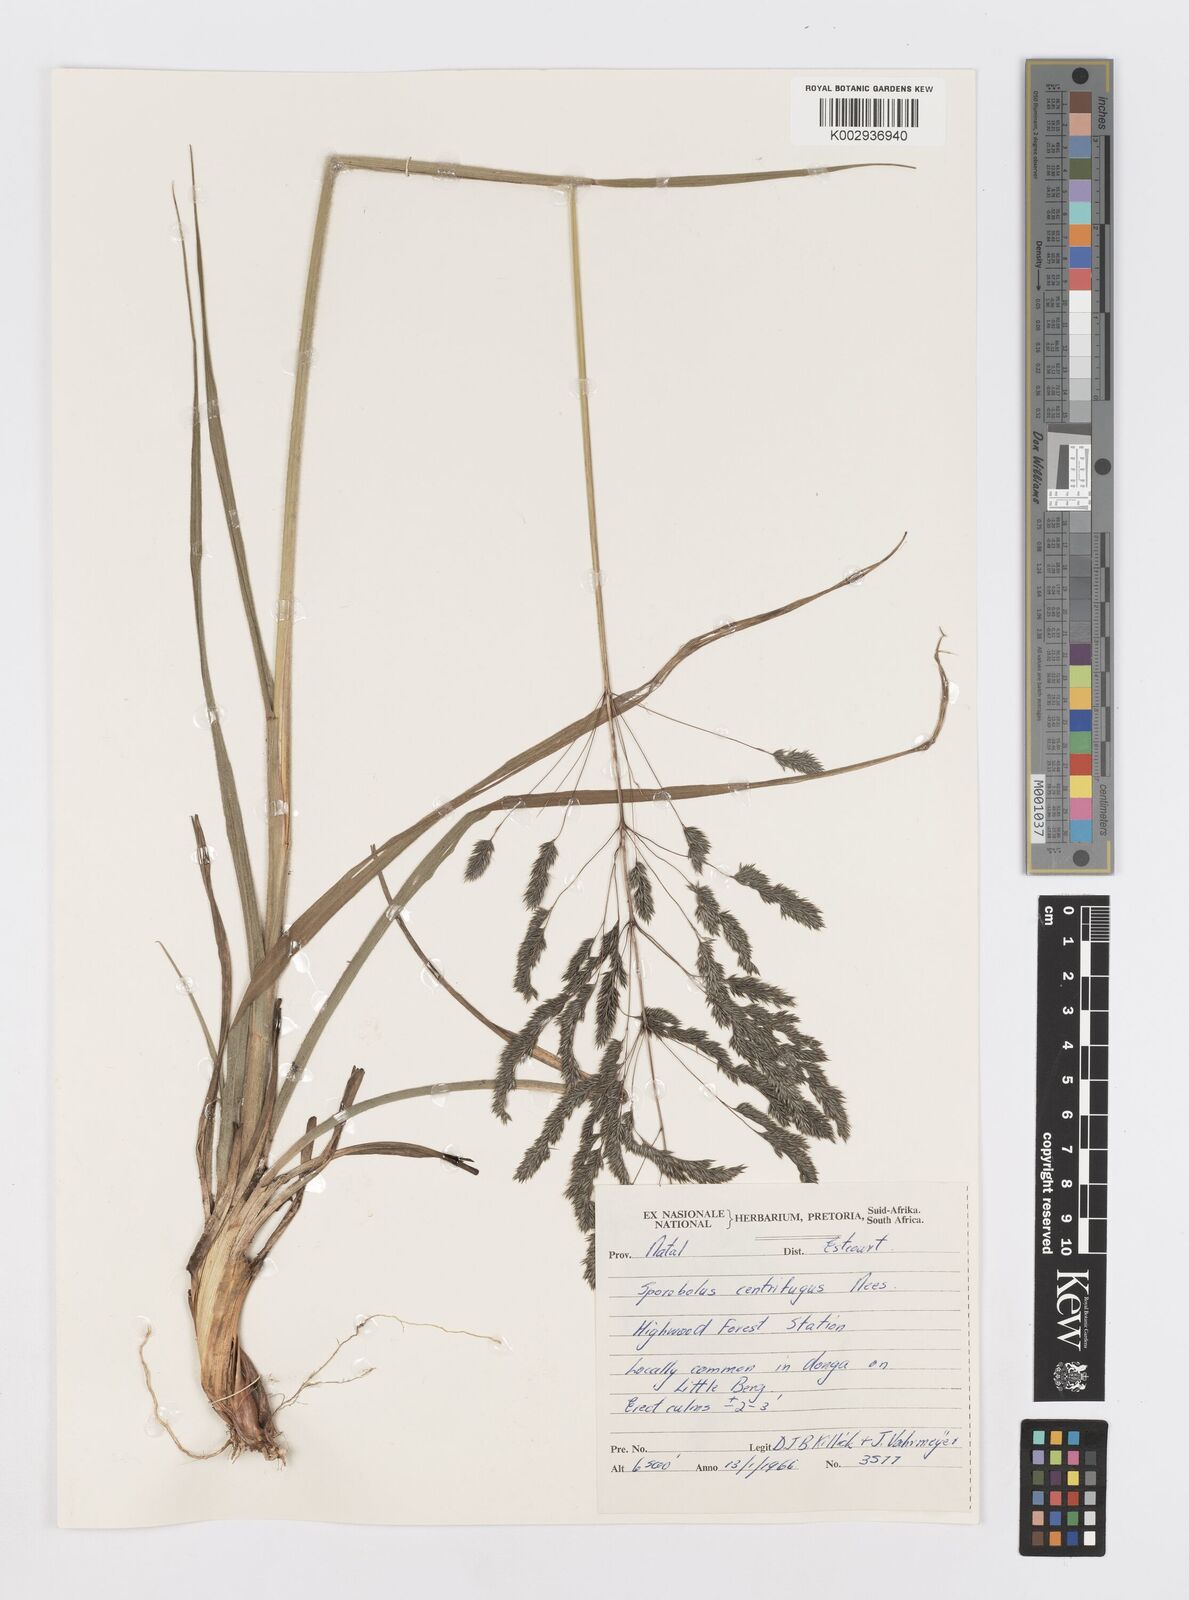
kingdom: Plantae
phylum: Tracheophyta
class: Liliopsida
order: Poales
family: Poaceae
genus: Sporobolus
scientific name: Sporobolus congoensis
